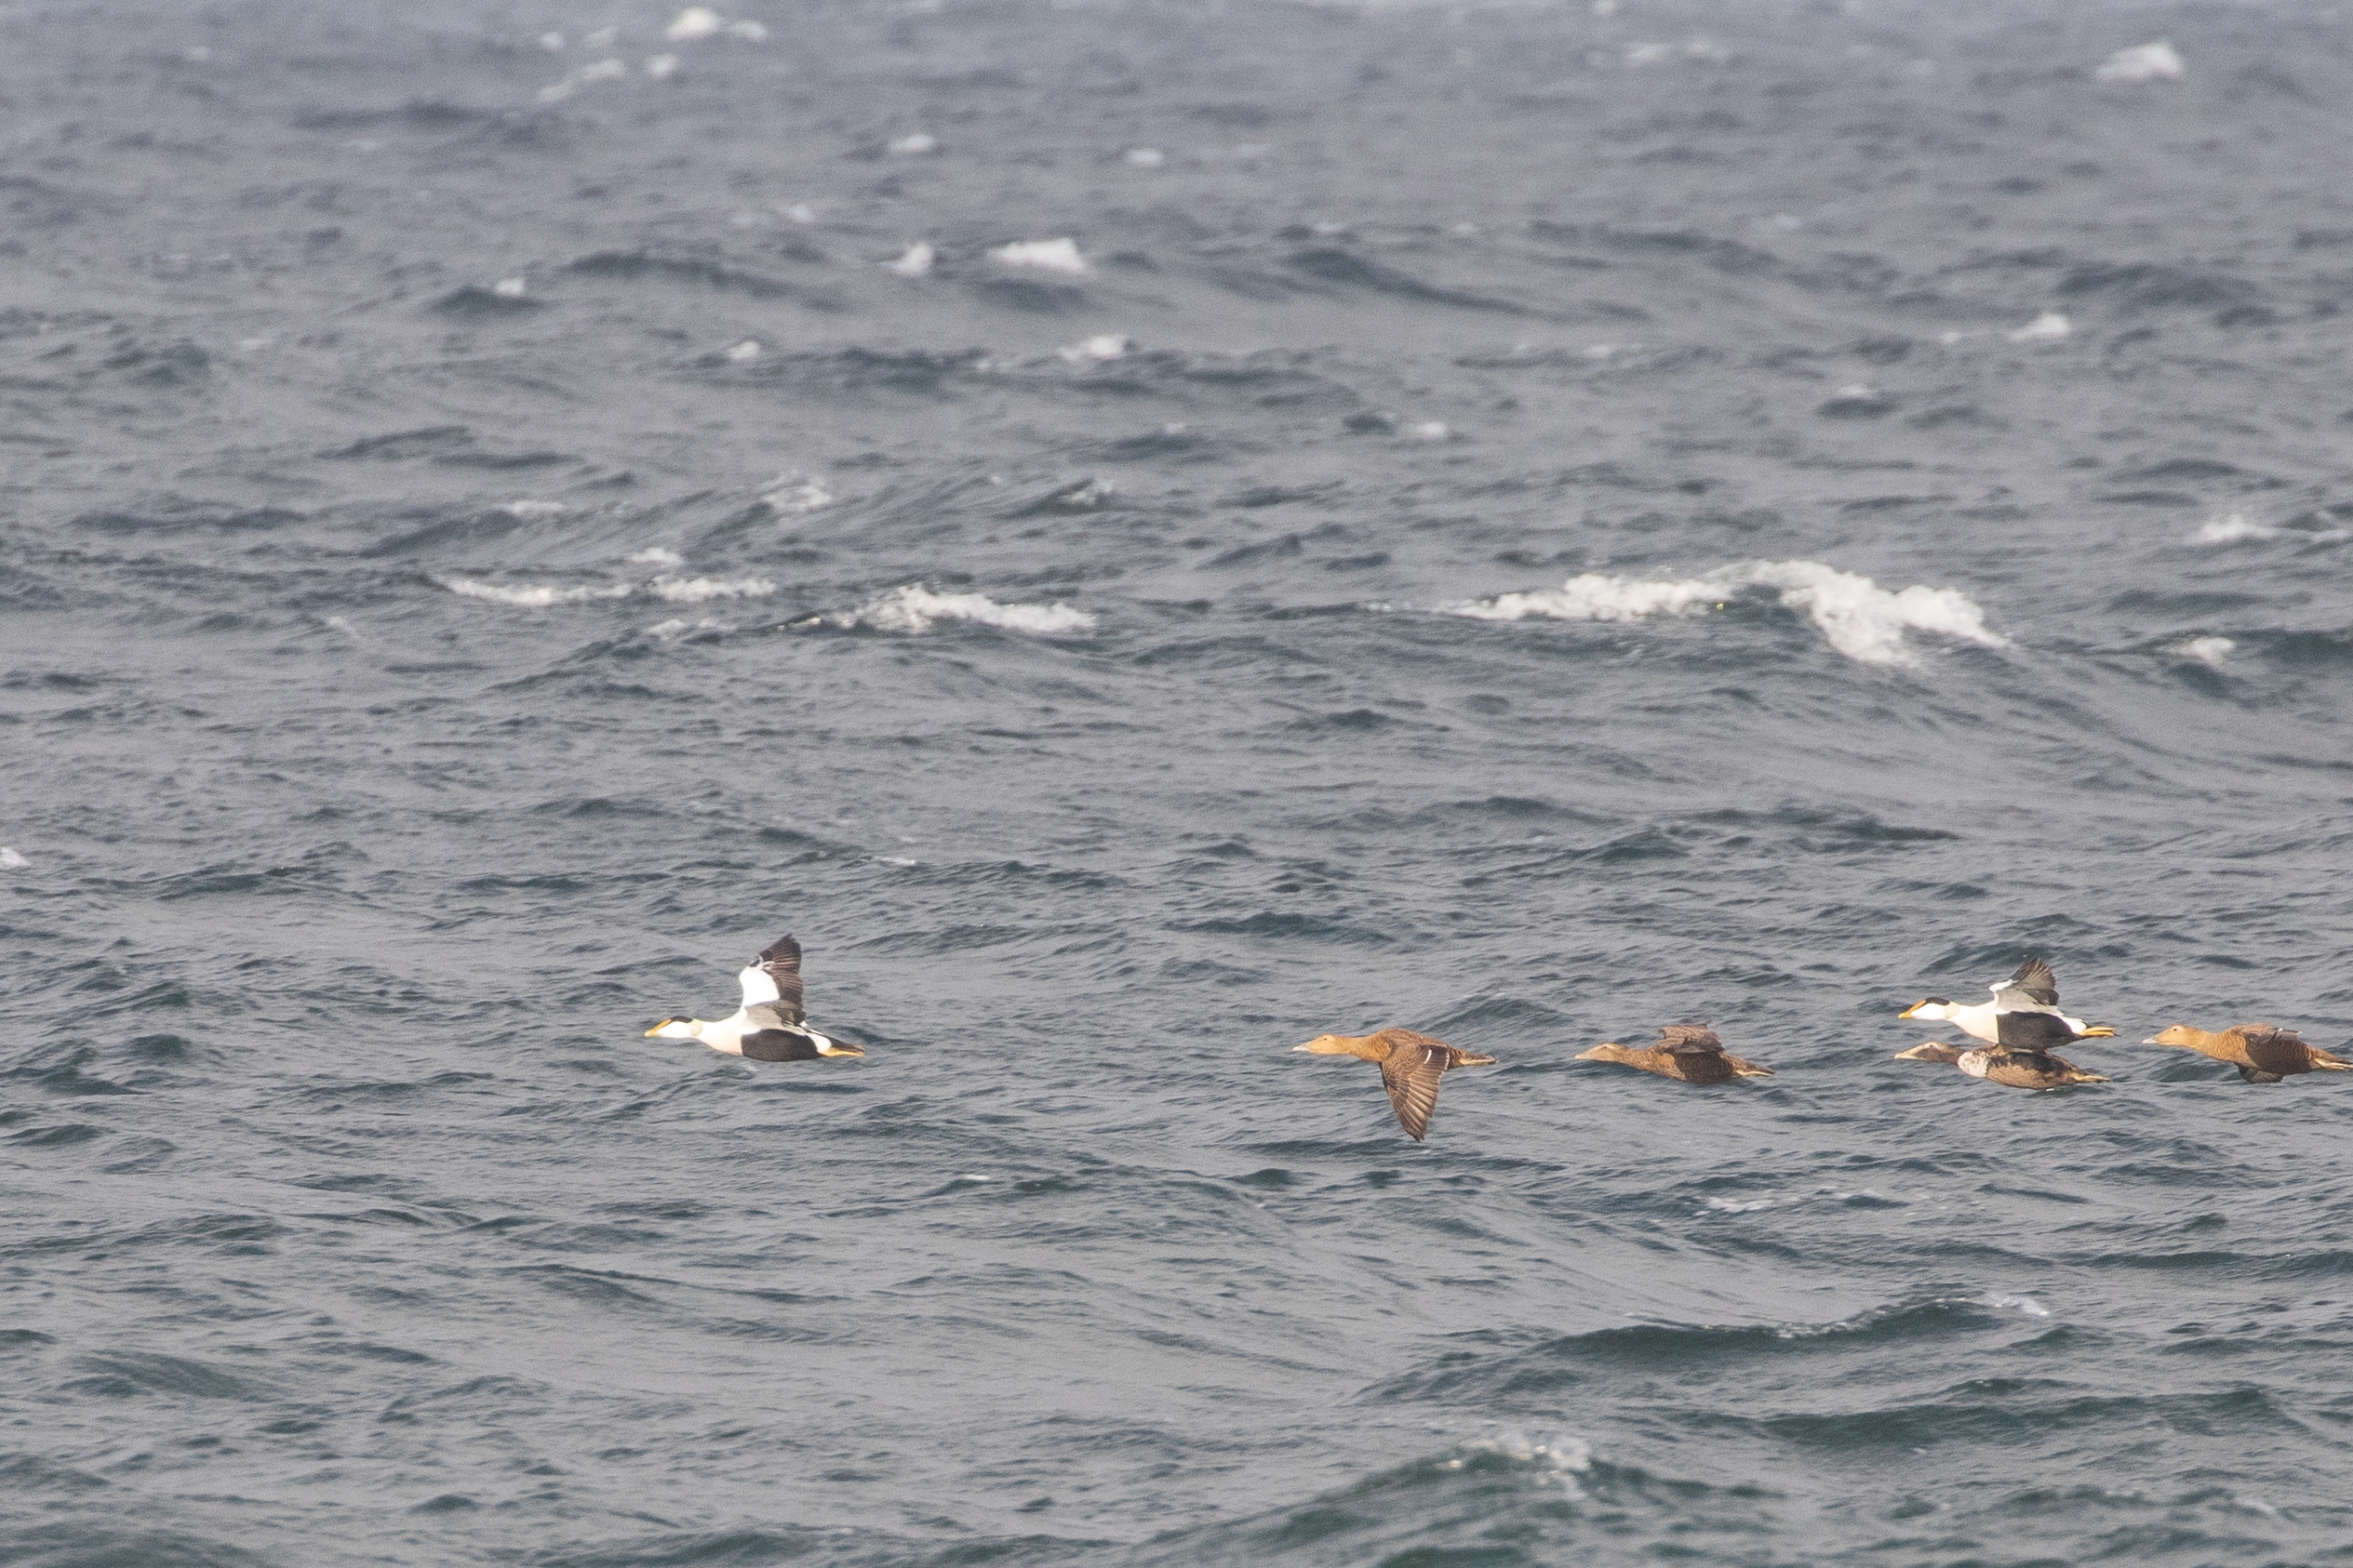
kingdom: Animalia
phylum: Chordata
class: Aves
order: Anseriformes
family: Anatidae
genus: Somateria
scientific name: Somateria mollissima
